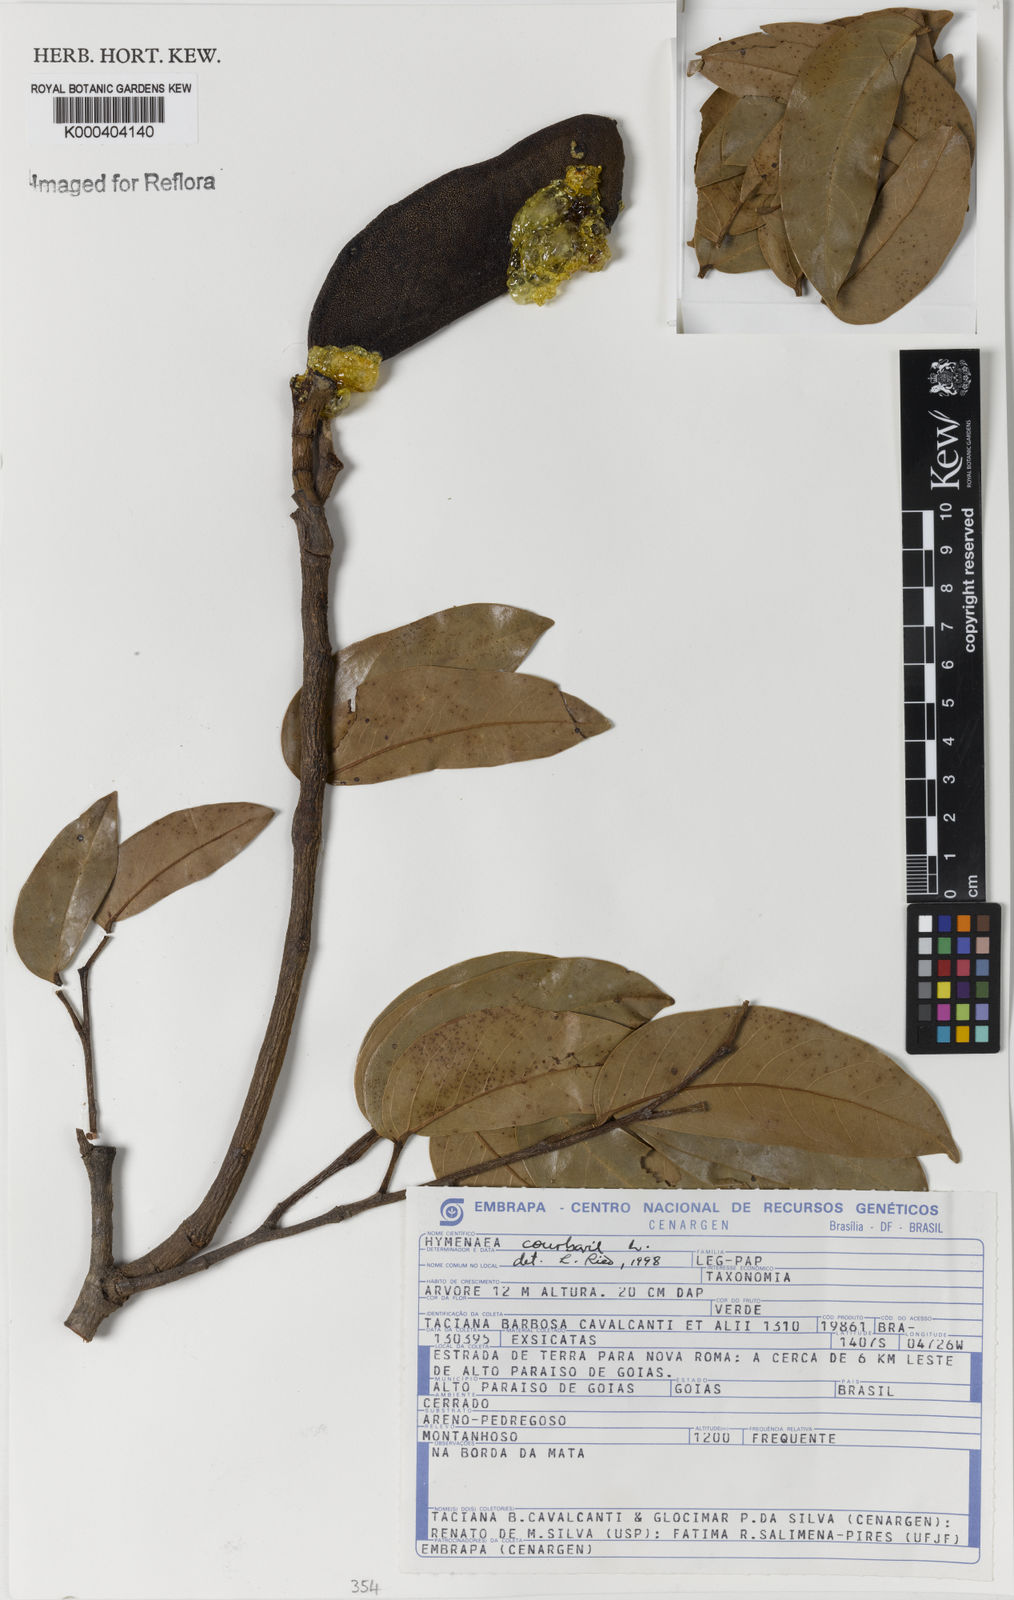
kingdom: Plantae
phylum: Tracheophyta
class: Magnoliopsida
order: Fabales
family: Fabaceae
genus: Hymenaea
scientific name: Hymenaea courbaril
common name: Brazilian copal
